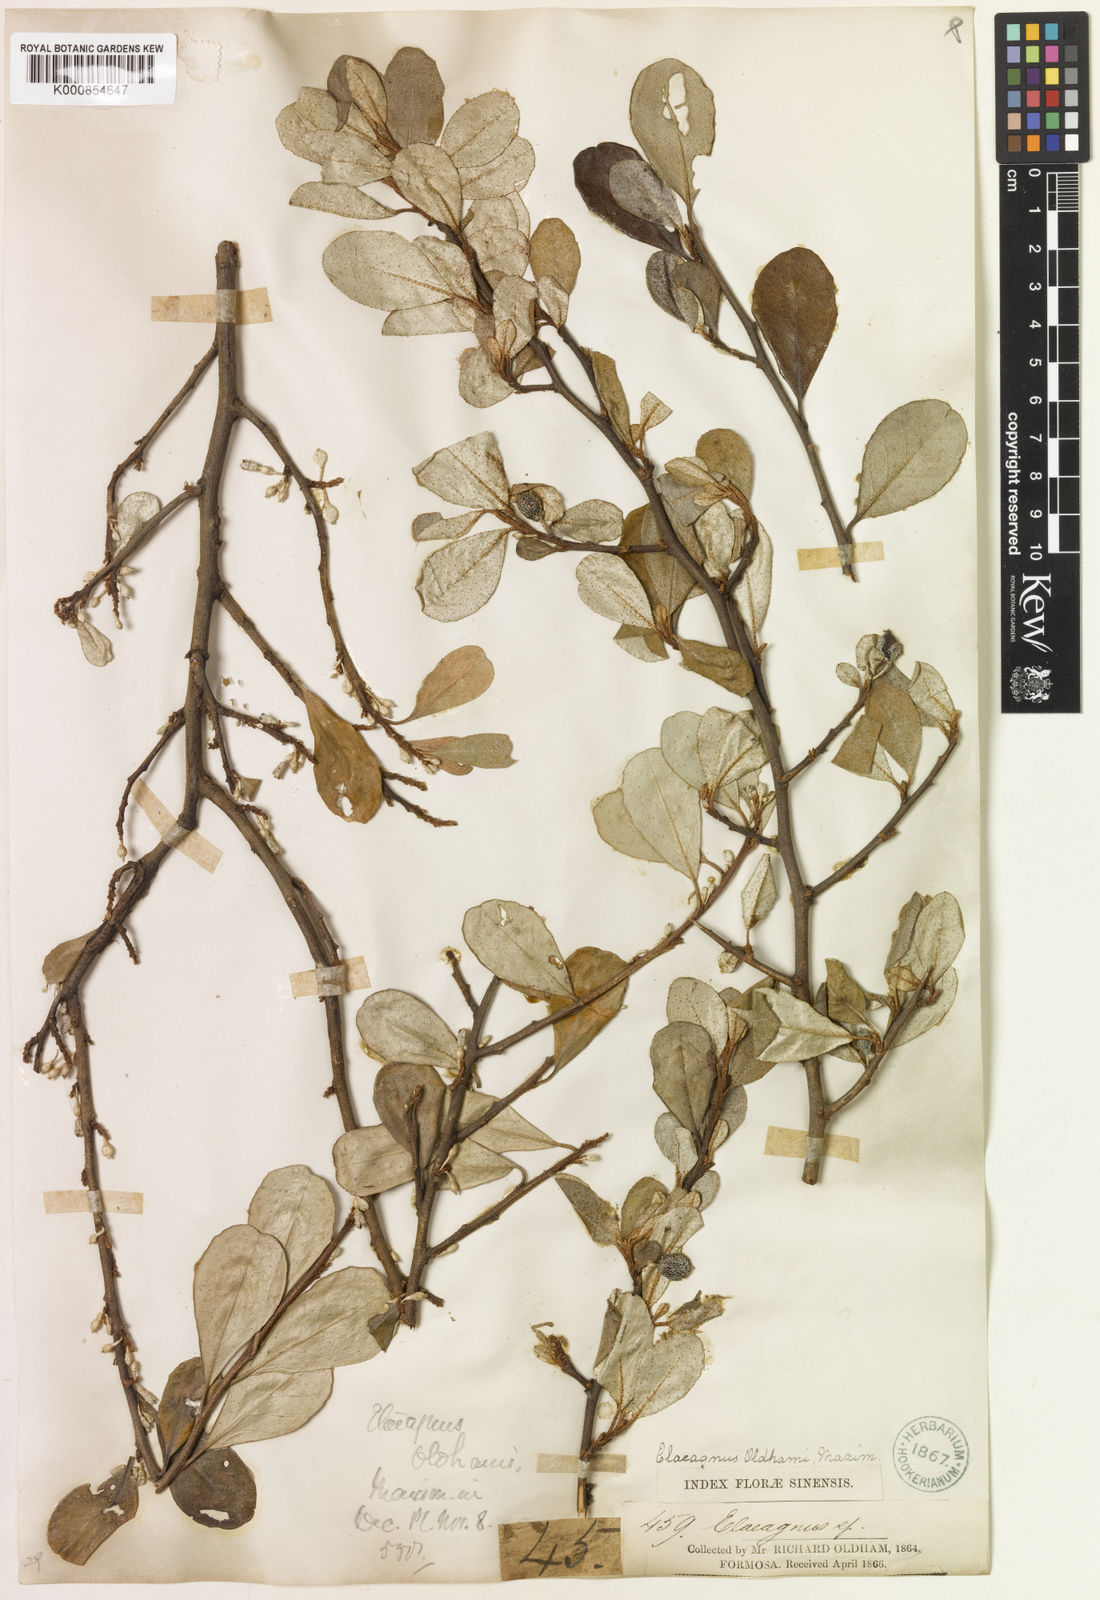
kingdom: Plantae
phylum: Tracheophyta
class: Magnoliopsida
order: Rosales
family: Elaeagnaceae
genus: Elaeagnus
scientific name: Elaeagnus oldhamii
